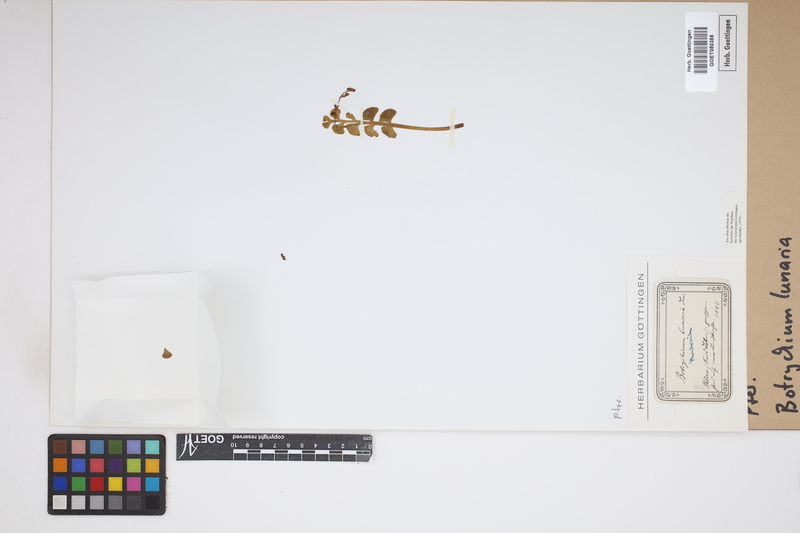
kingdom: Plantae
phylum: Tracheophyta
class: Polypodiopsida
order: Ophioglossales
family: Ophioglossaceae
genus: Botrychium
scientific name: Botrychium lunaria
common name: Moonwort
